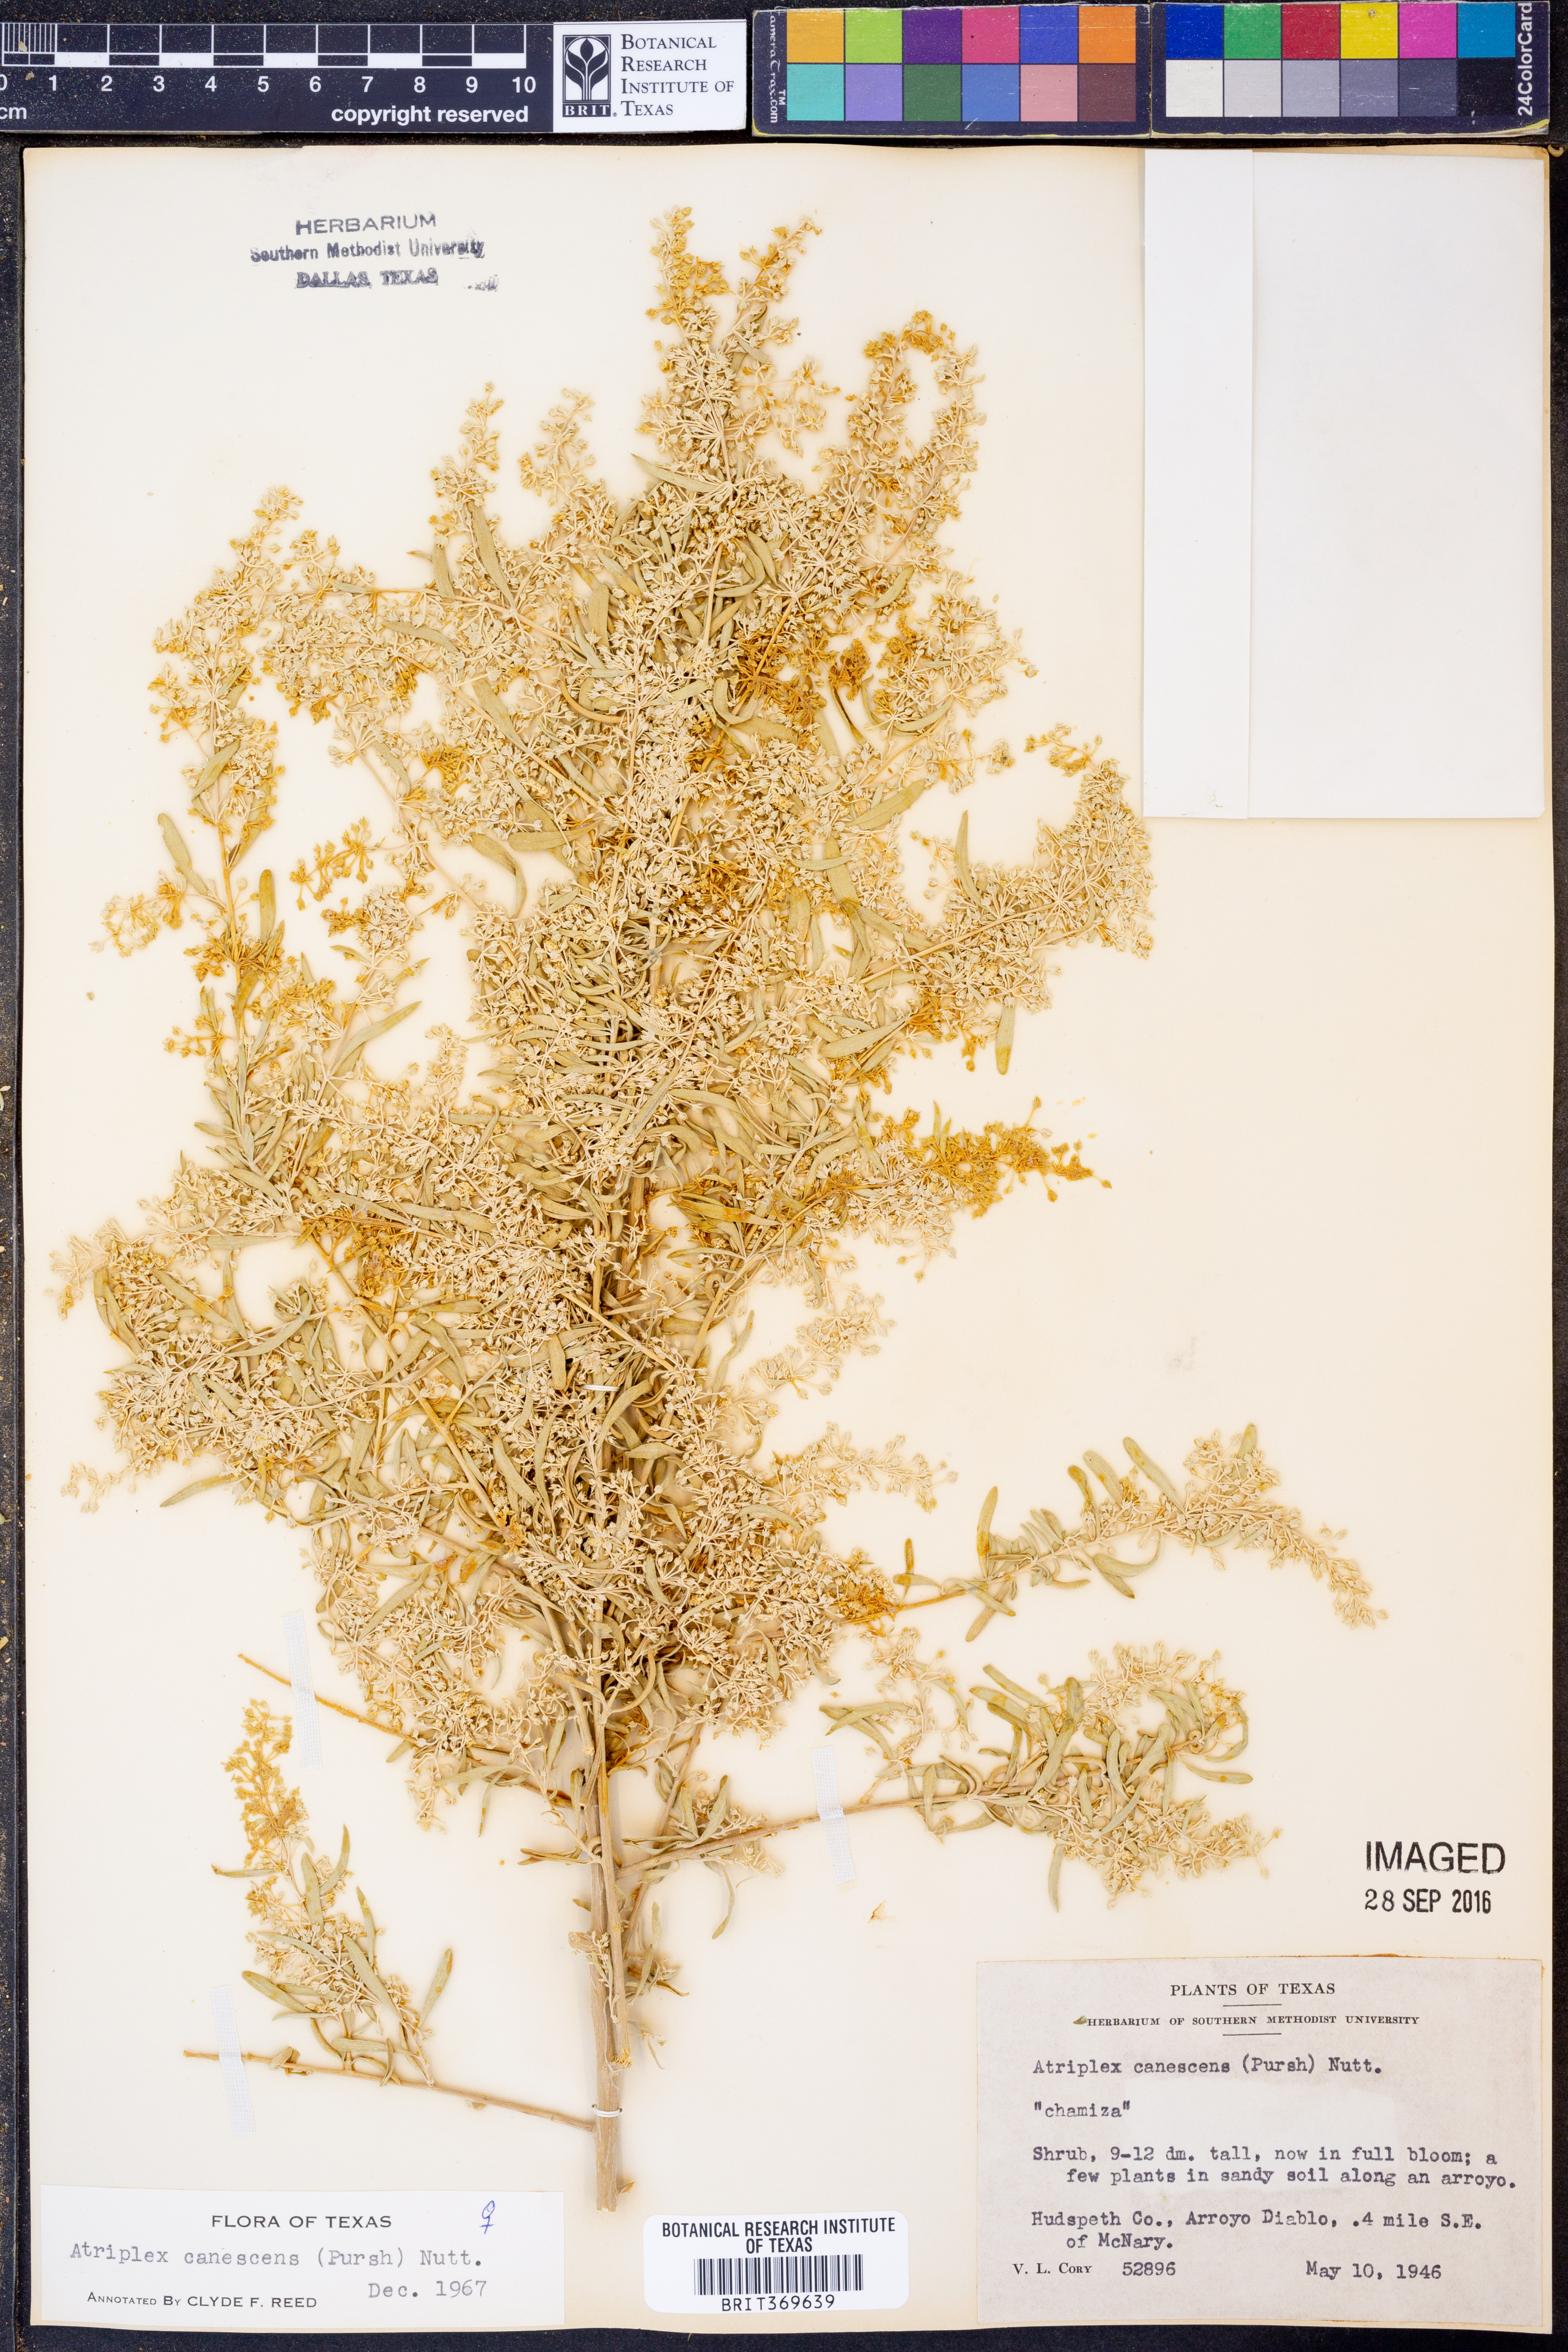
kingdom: Plantae
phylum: Tracheophyta
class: Magnoliopsida
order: Caryophyllales
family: Amaranthaceae
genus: Atriplex
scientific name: Atriplex canescens
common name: Four-wing saltbush
